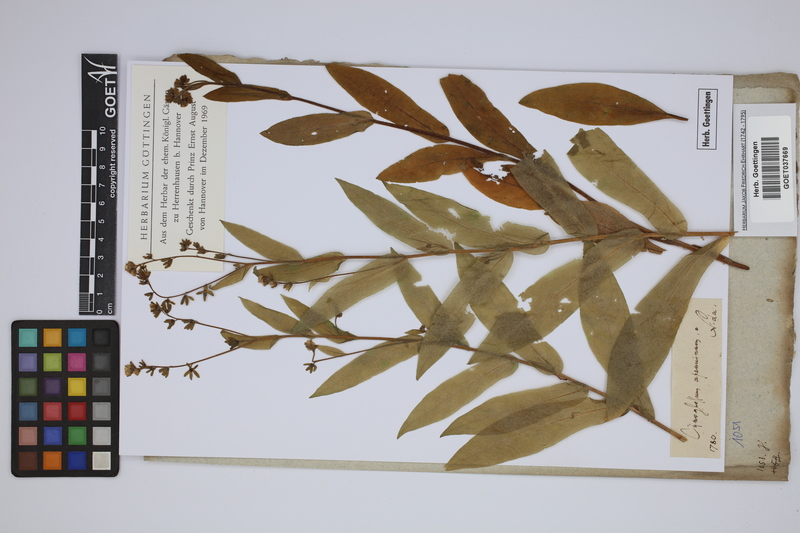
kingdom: Plantae
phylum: Tracheophyta
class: Magnoliopsida
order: Boraginales
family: Boraginaceae
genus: Solenanthus
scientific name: Solenanthus apenninus
